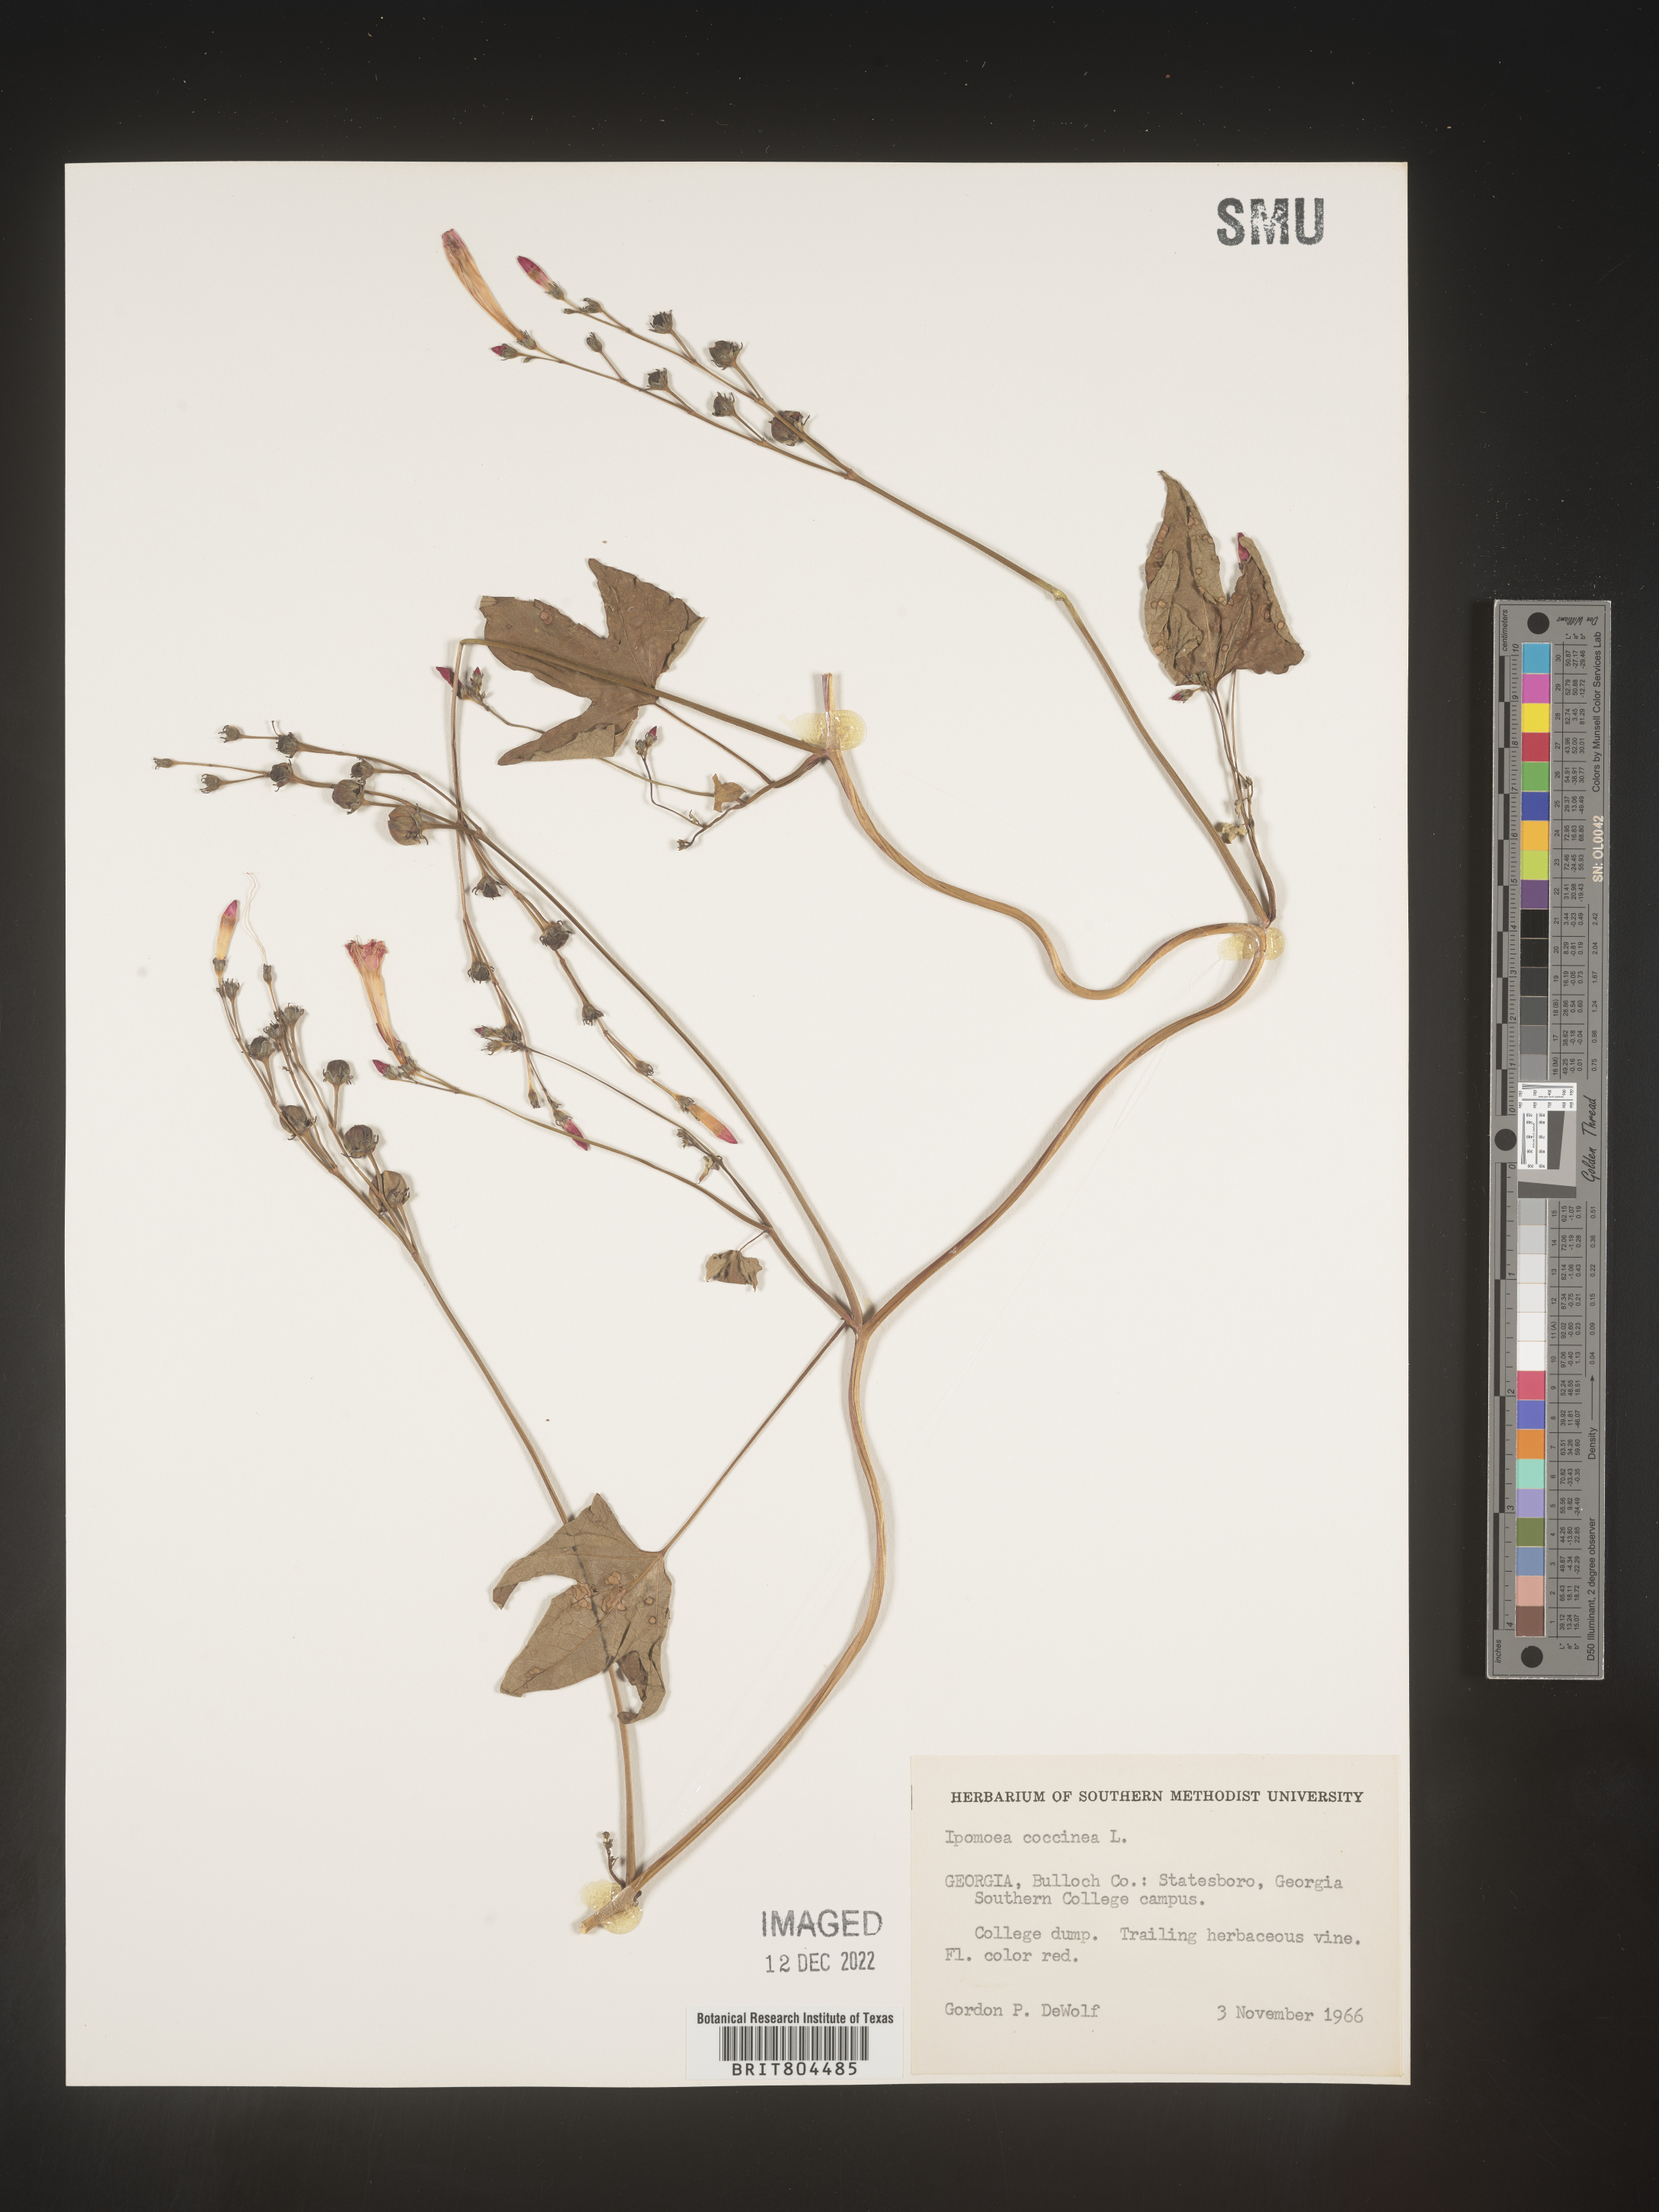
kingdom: Plantae
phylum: Tracheophyta
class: Magnoliopsida
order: Solanales
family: Convolvulaceae
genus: Ipomoea
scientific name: Ipomoea coccinea
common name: Red morning-glory
